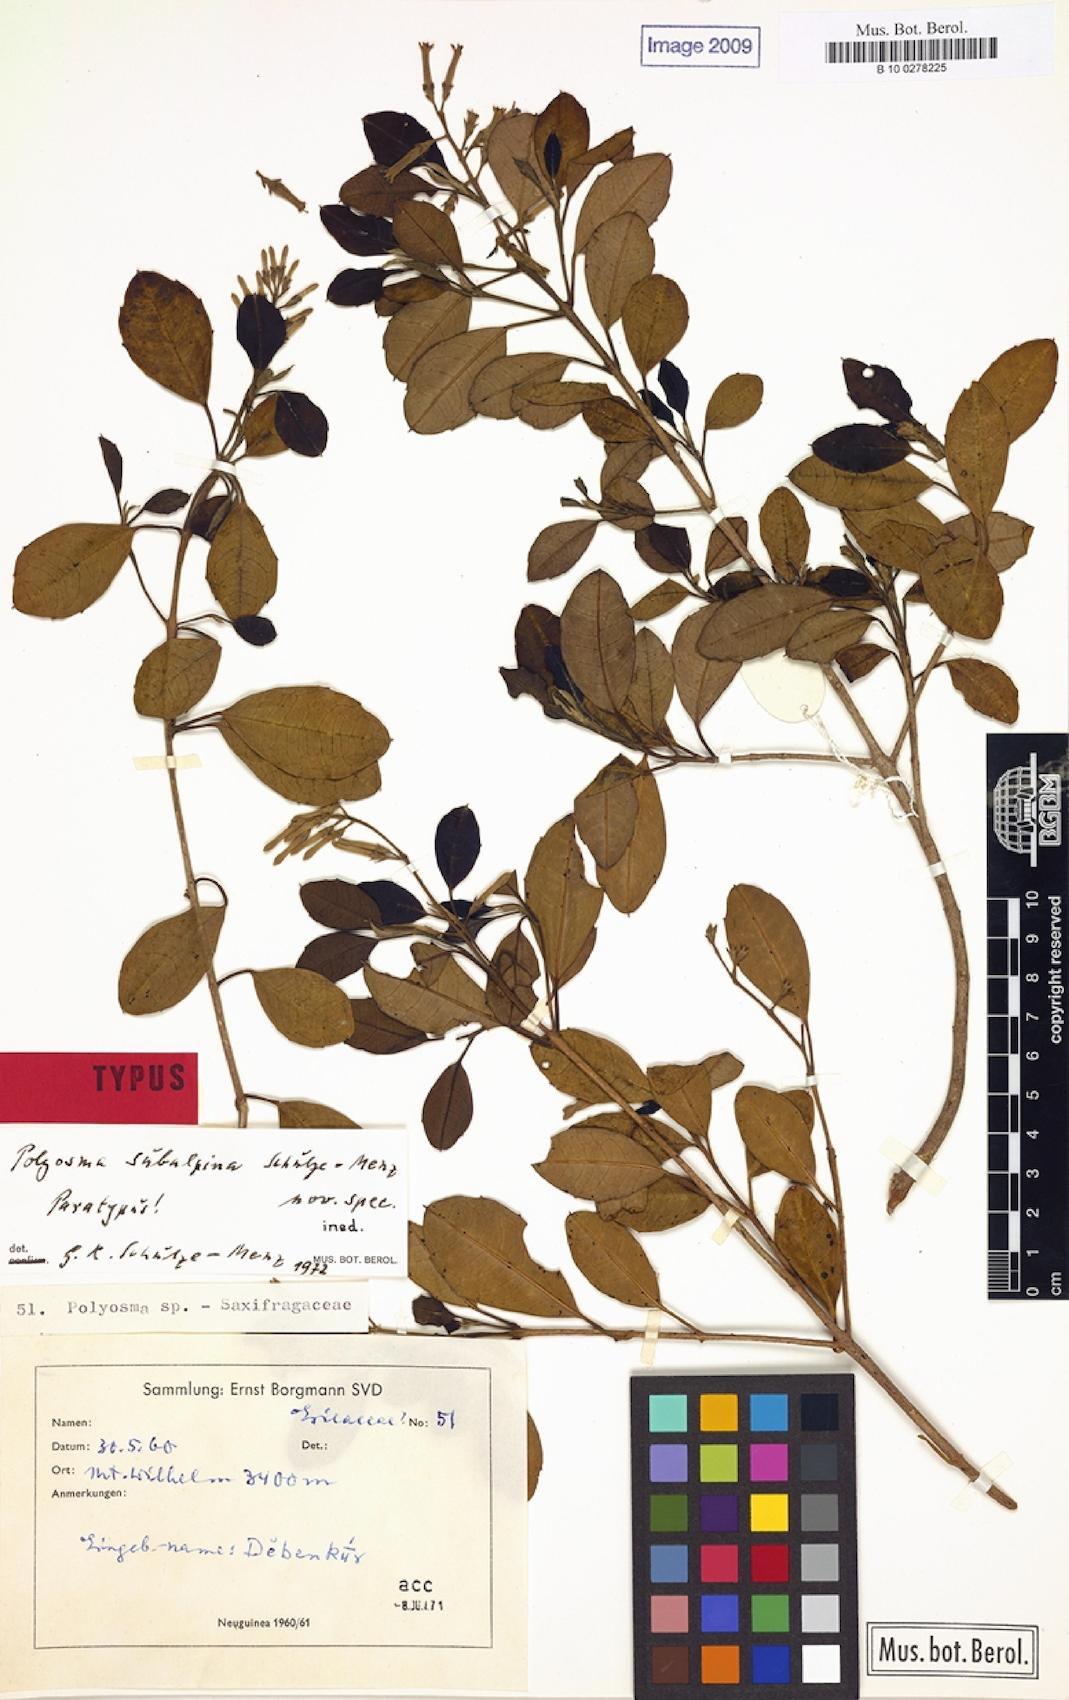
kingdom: Plantae
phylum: Tracheophyta
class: Magnoliopsida
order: Escalloniales
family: Escalloniaceae
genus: Polyosma
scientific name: Polyosma subalpina
